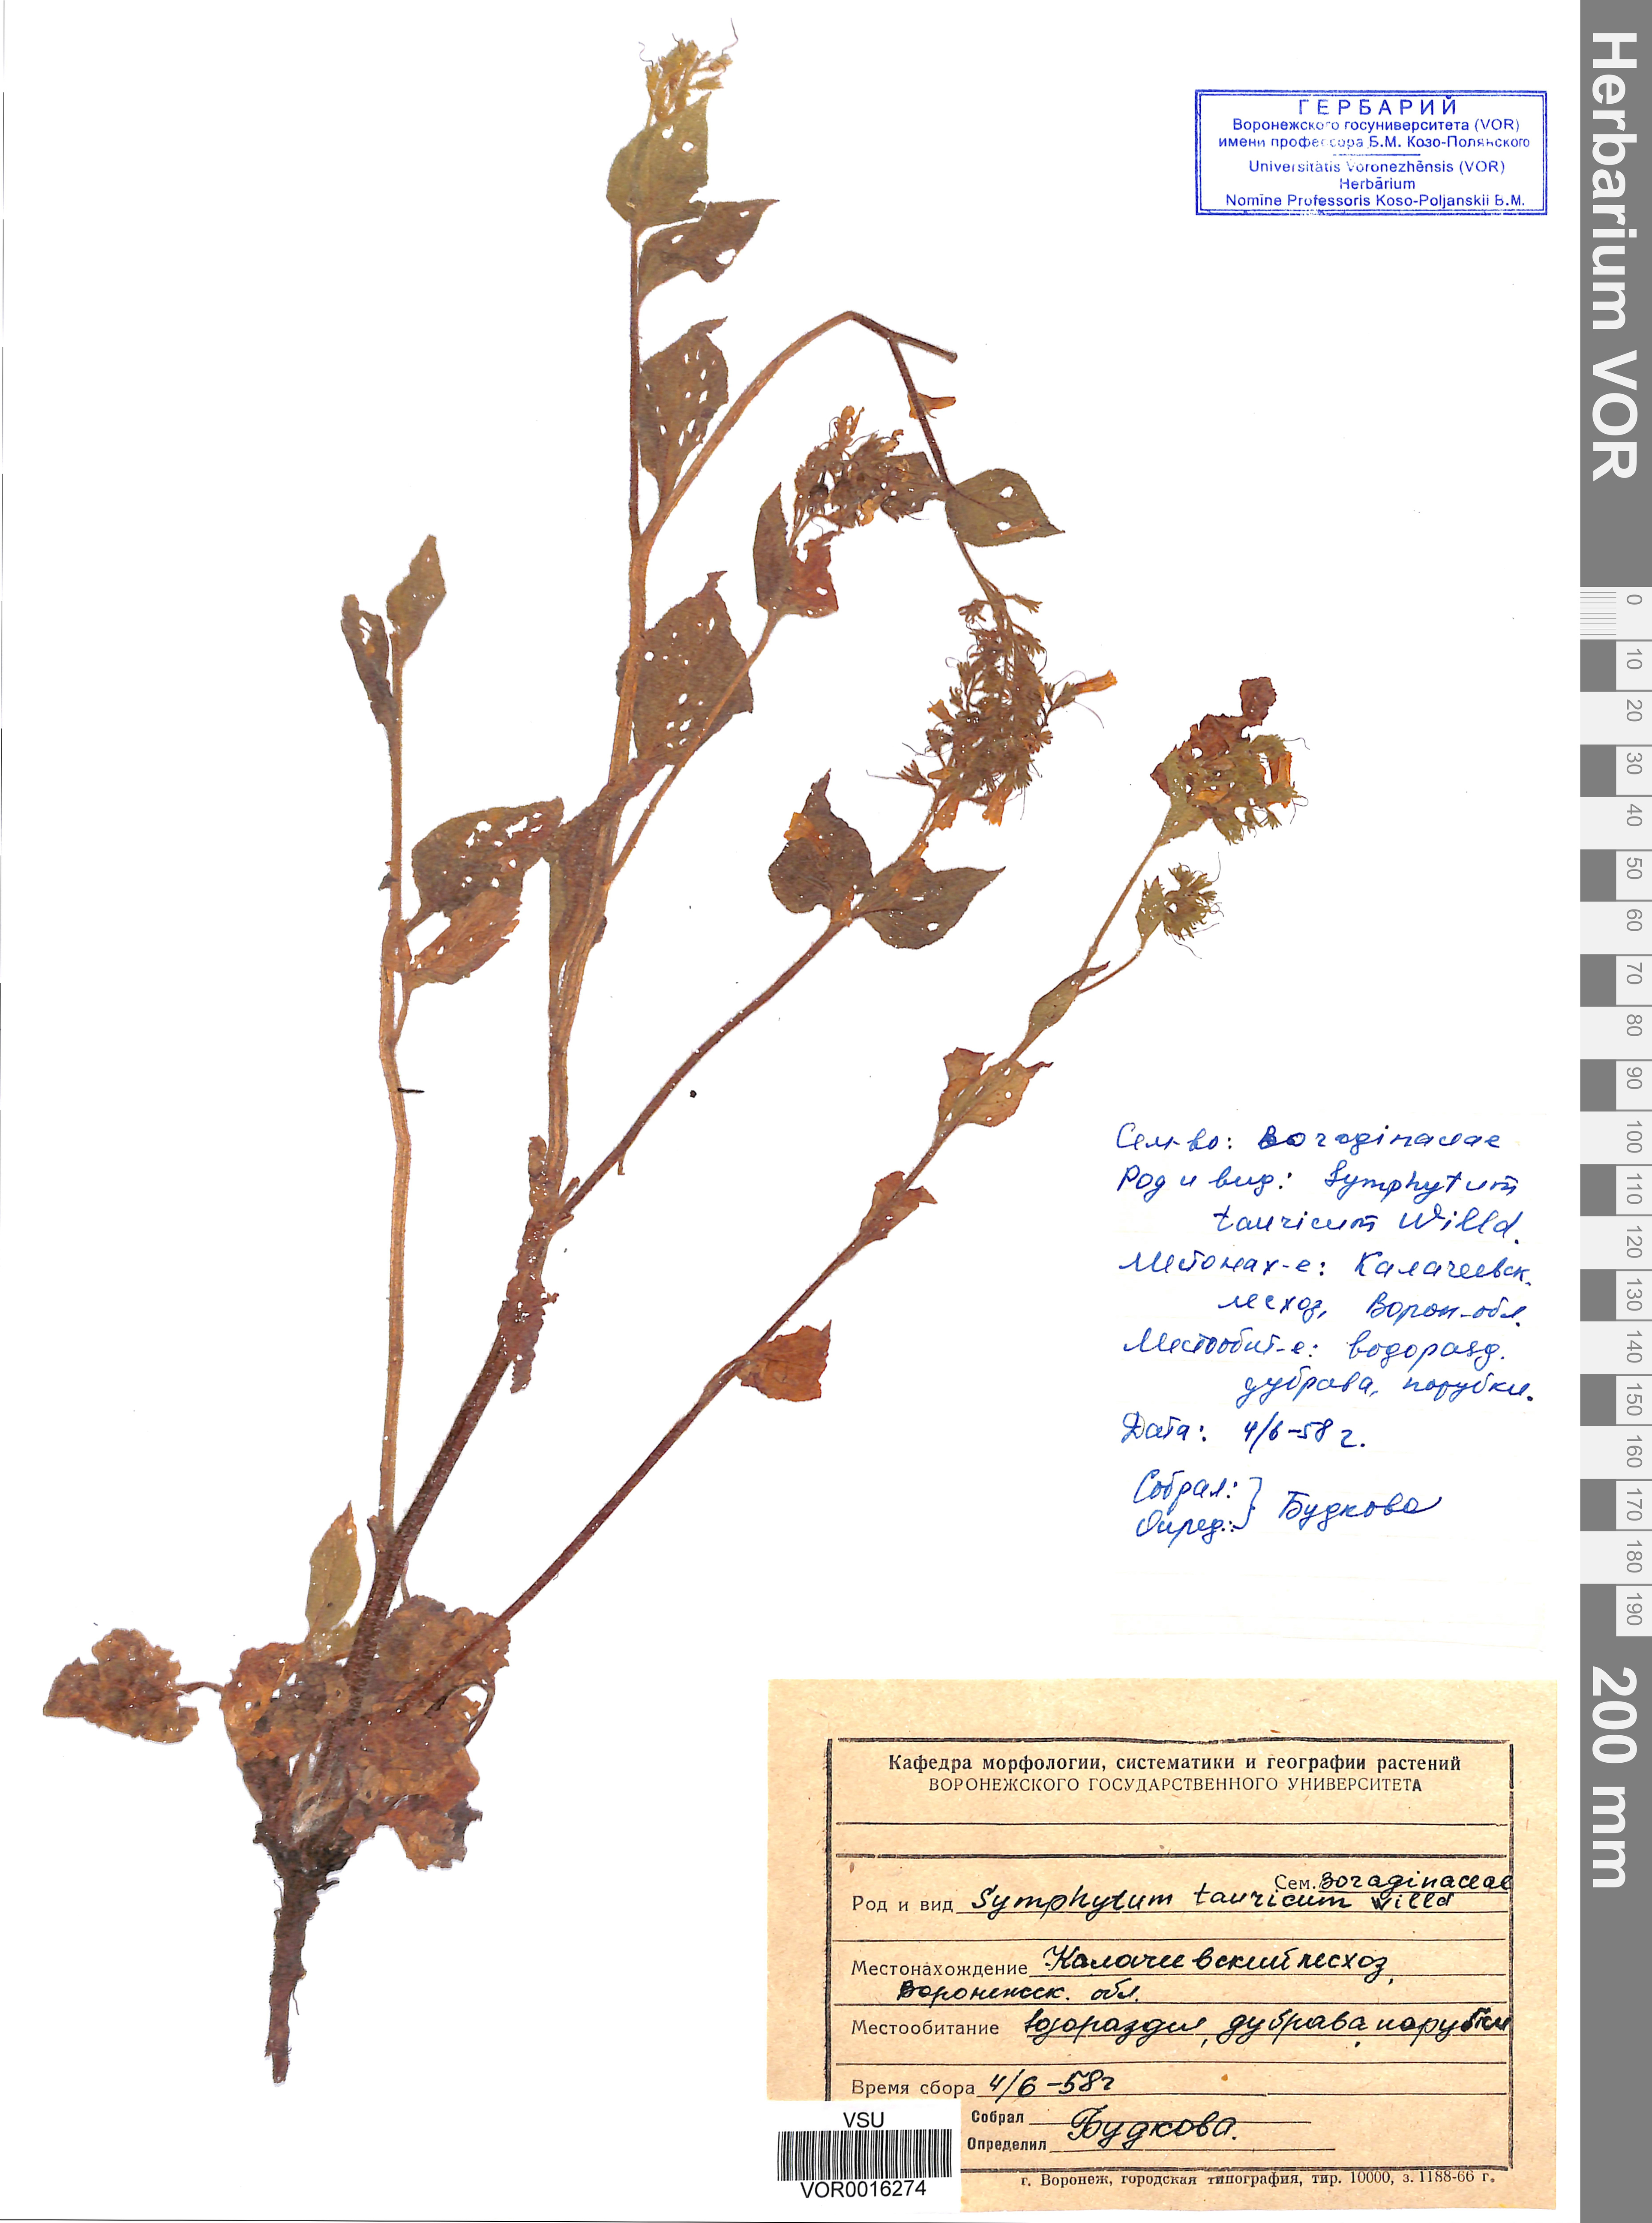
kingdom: Plantae
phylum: Tracheophyta
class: Magnoliopsida
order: Boraginales
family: Boraginaceae
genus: Symphytum
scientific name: Symphytum tauricum
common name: Crimean comfrey
